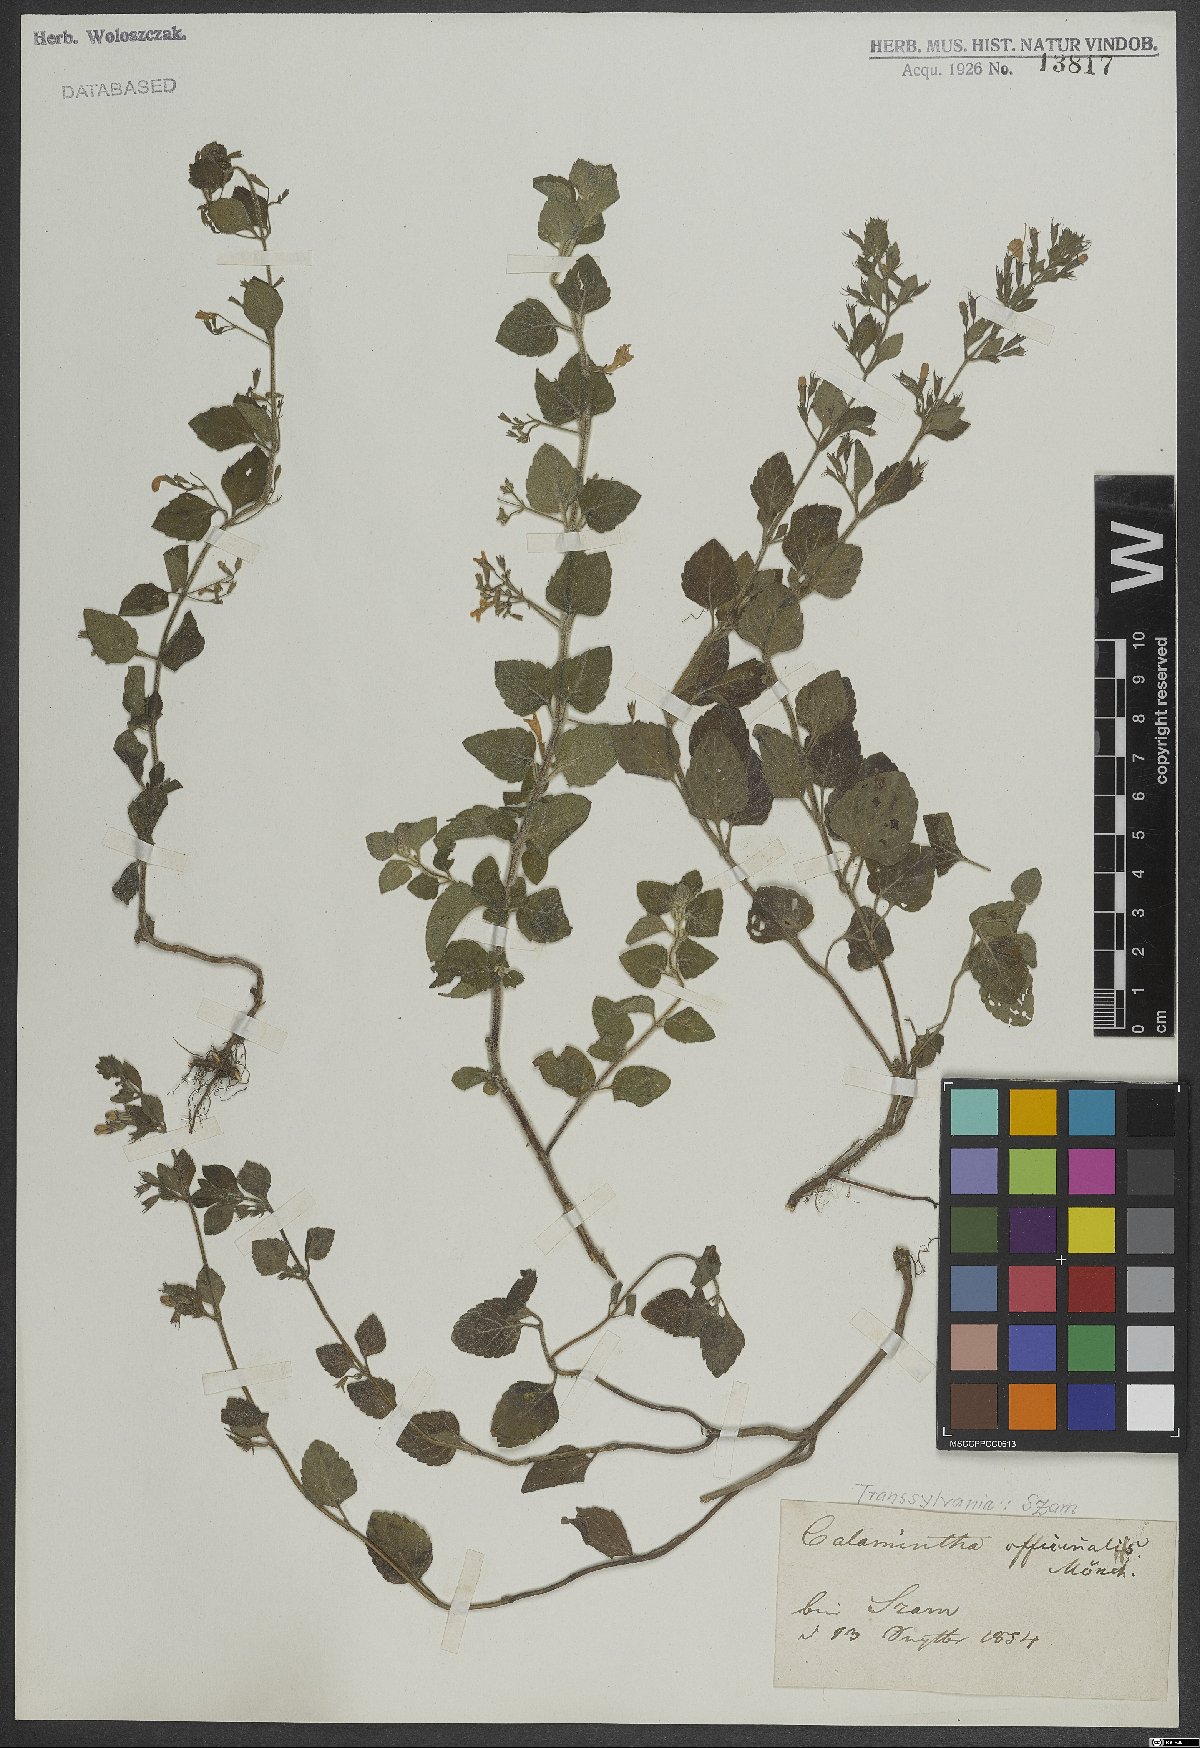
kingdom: Plantae
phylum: Tracheophyta
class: Magnoliopsida
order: Lamiales
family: Lamiaceae
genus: Clinopodium
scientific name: Clinopodium nepeta
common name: Lesser calamint
